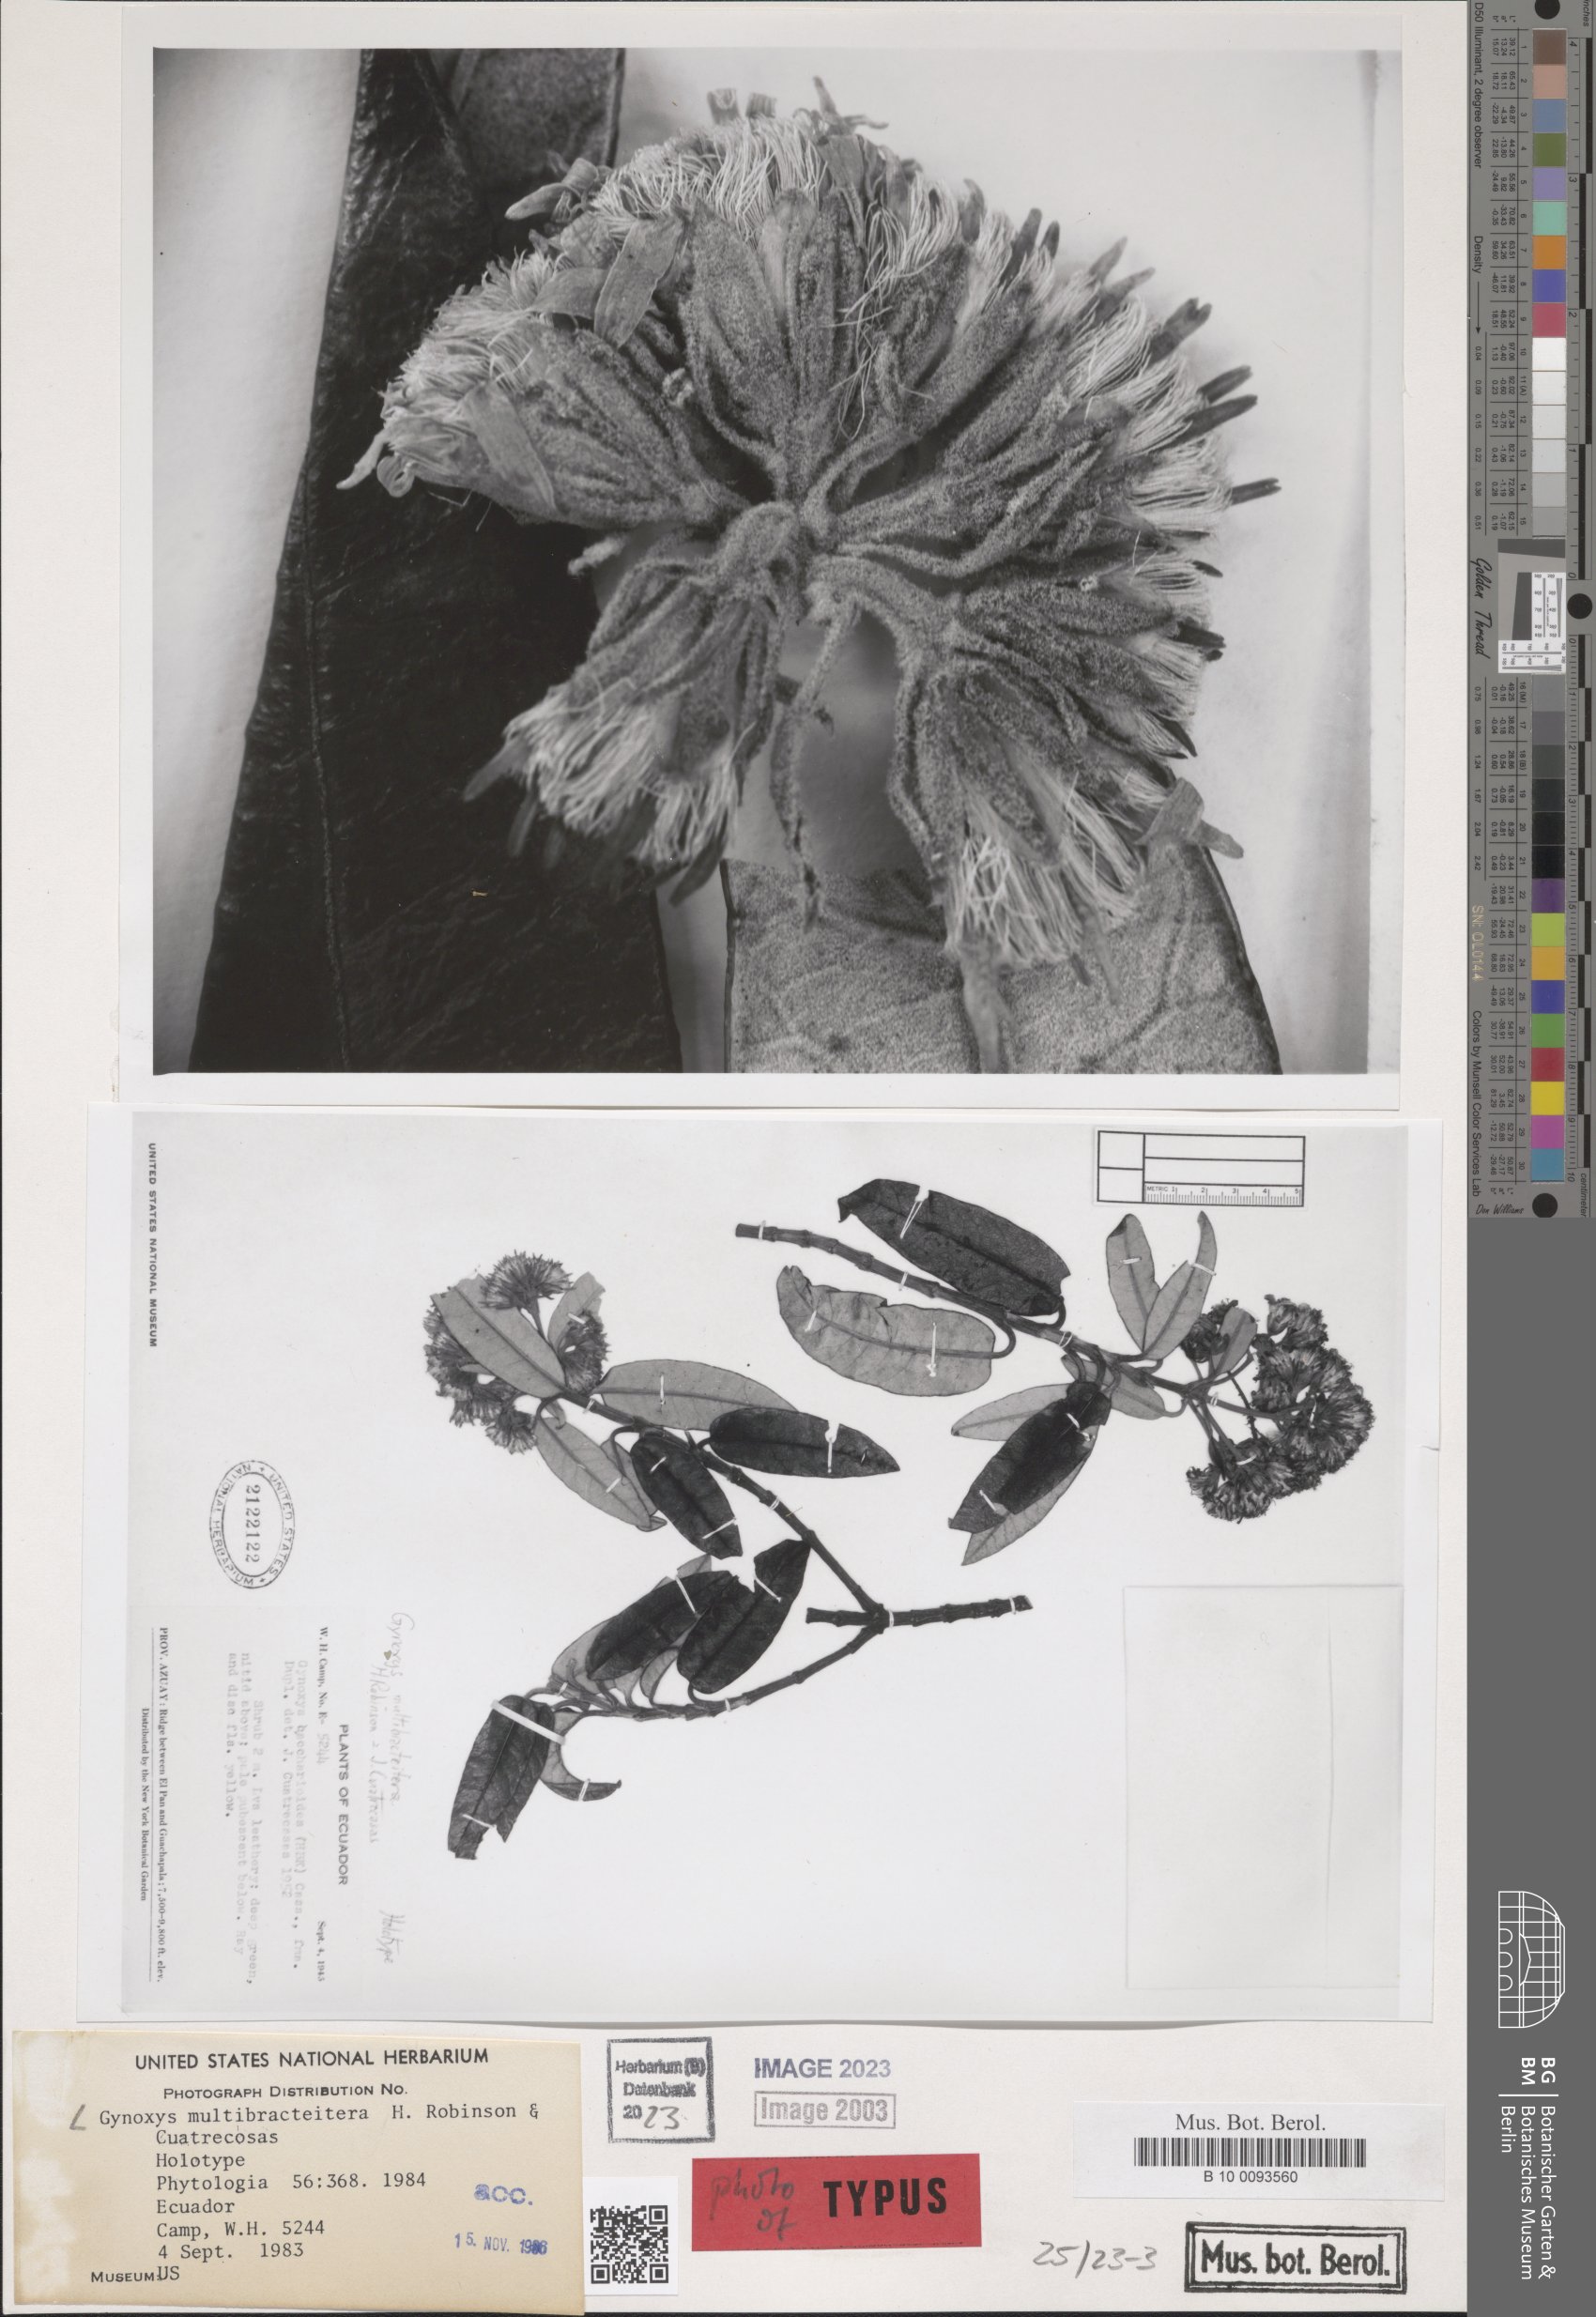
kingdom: Plantae
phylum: Tracheophyta
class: Magnoliopsida
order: Asterales
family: Asteraceae
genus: Gynoxys
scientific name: Gynoxys multibracteifera
